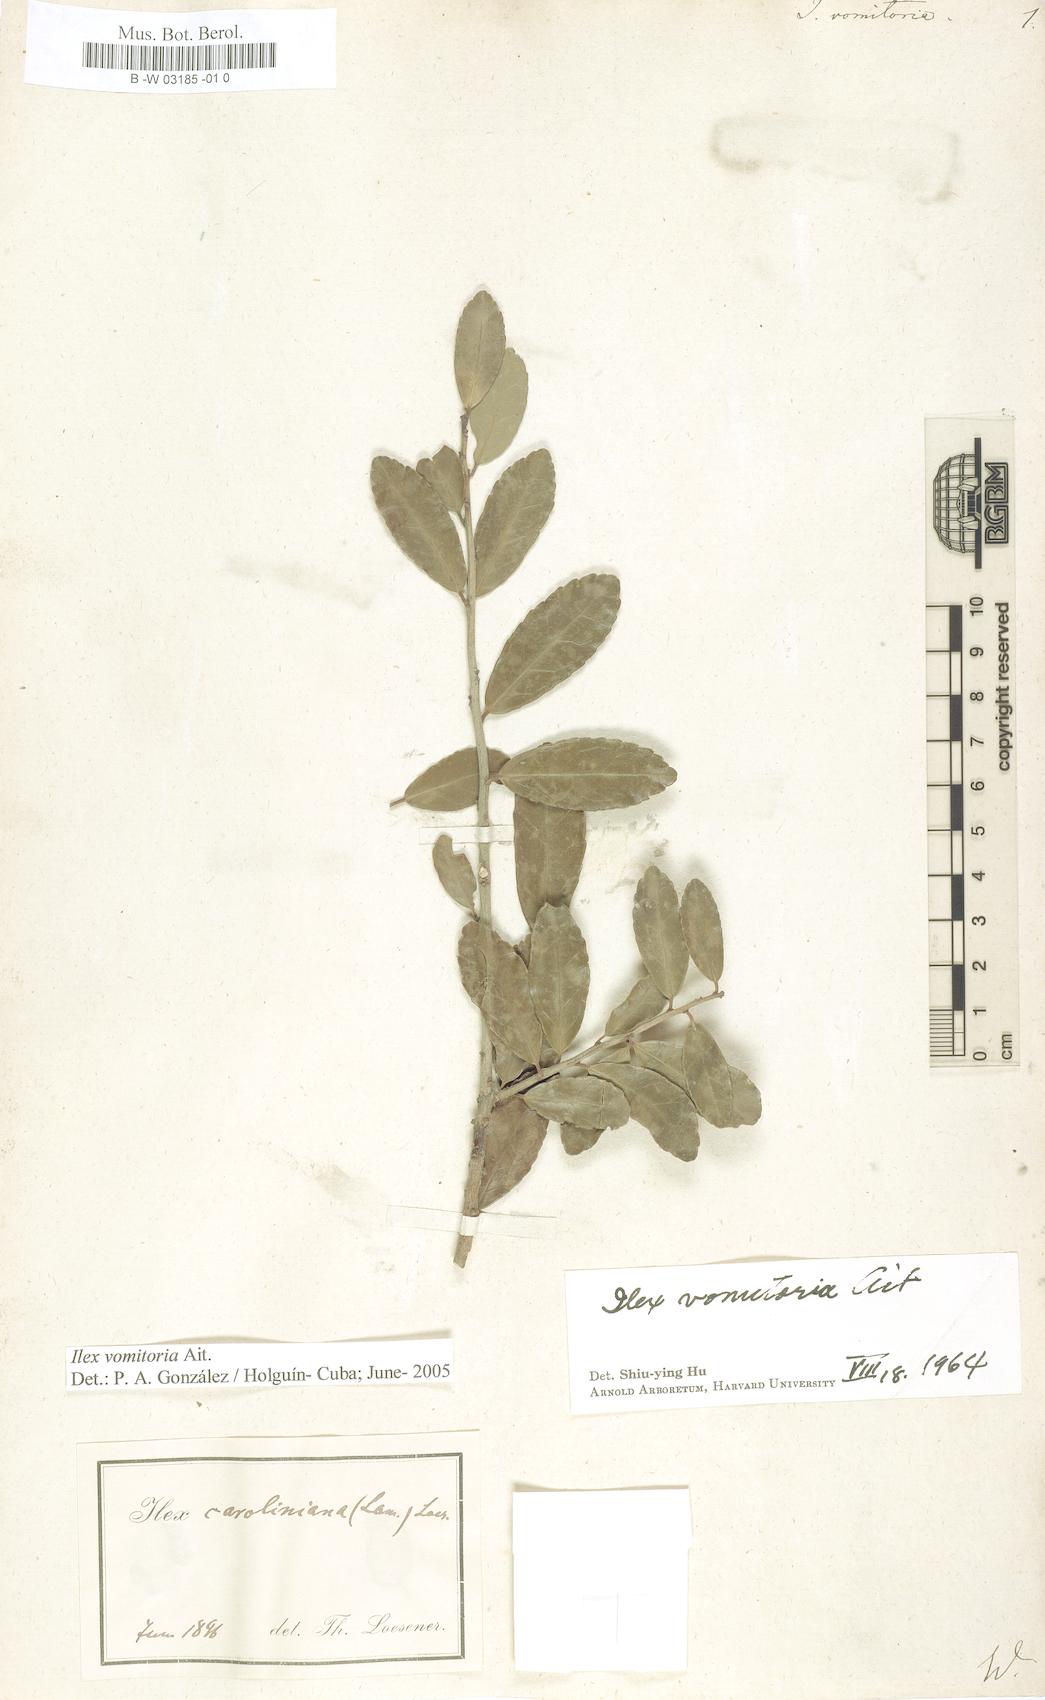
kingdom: Plantae
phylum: Tracheophyta
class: Magnoliopsida
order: Aquifoliales
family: Aquifoliaceae
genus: Ilex
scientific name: Ilex vomitoria
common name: Yaupon holly
